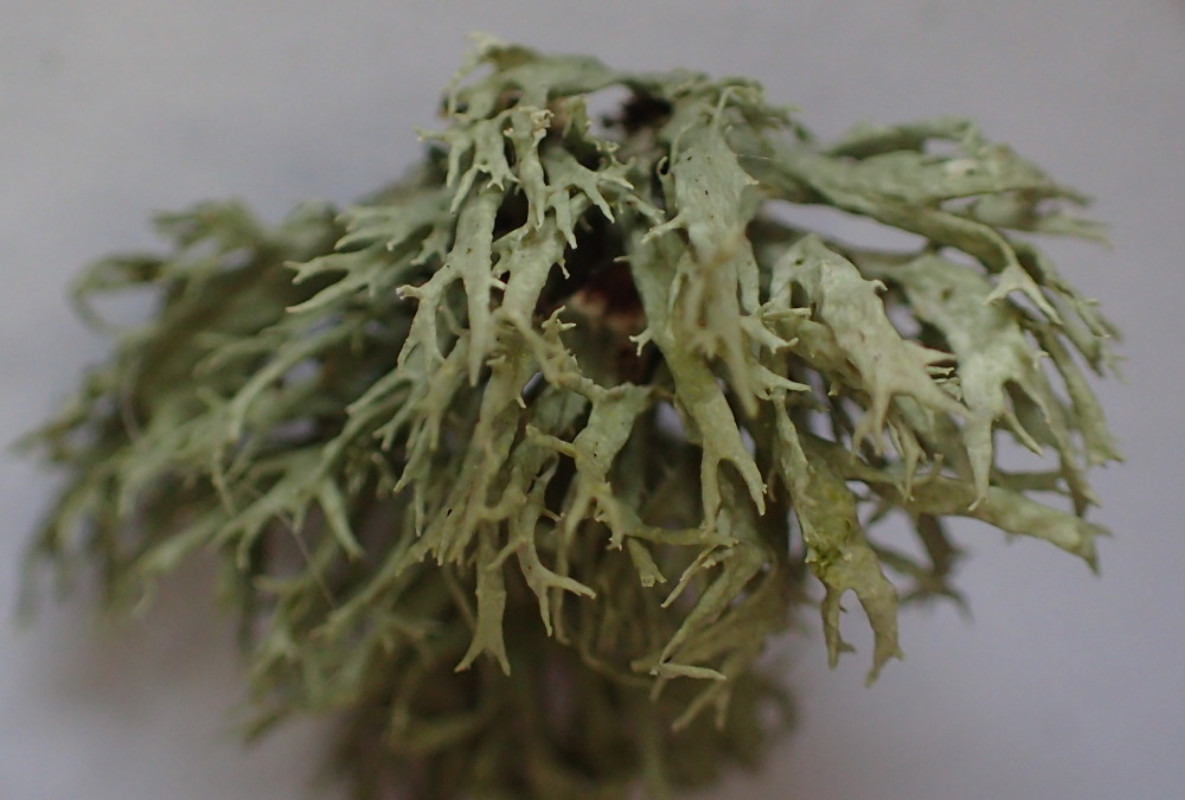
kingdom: Fungi
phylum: Ascomycota
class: Lecanoromycetes
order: Lecanorales
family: Ramalinaceae
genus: Ramalina
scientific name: Ramalina farinacea
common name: melet grenlav
